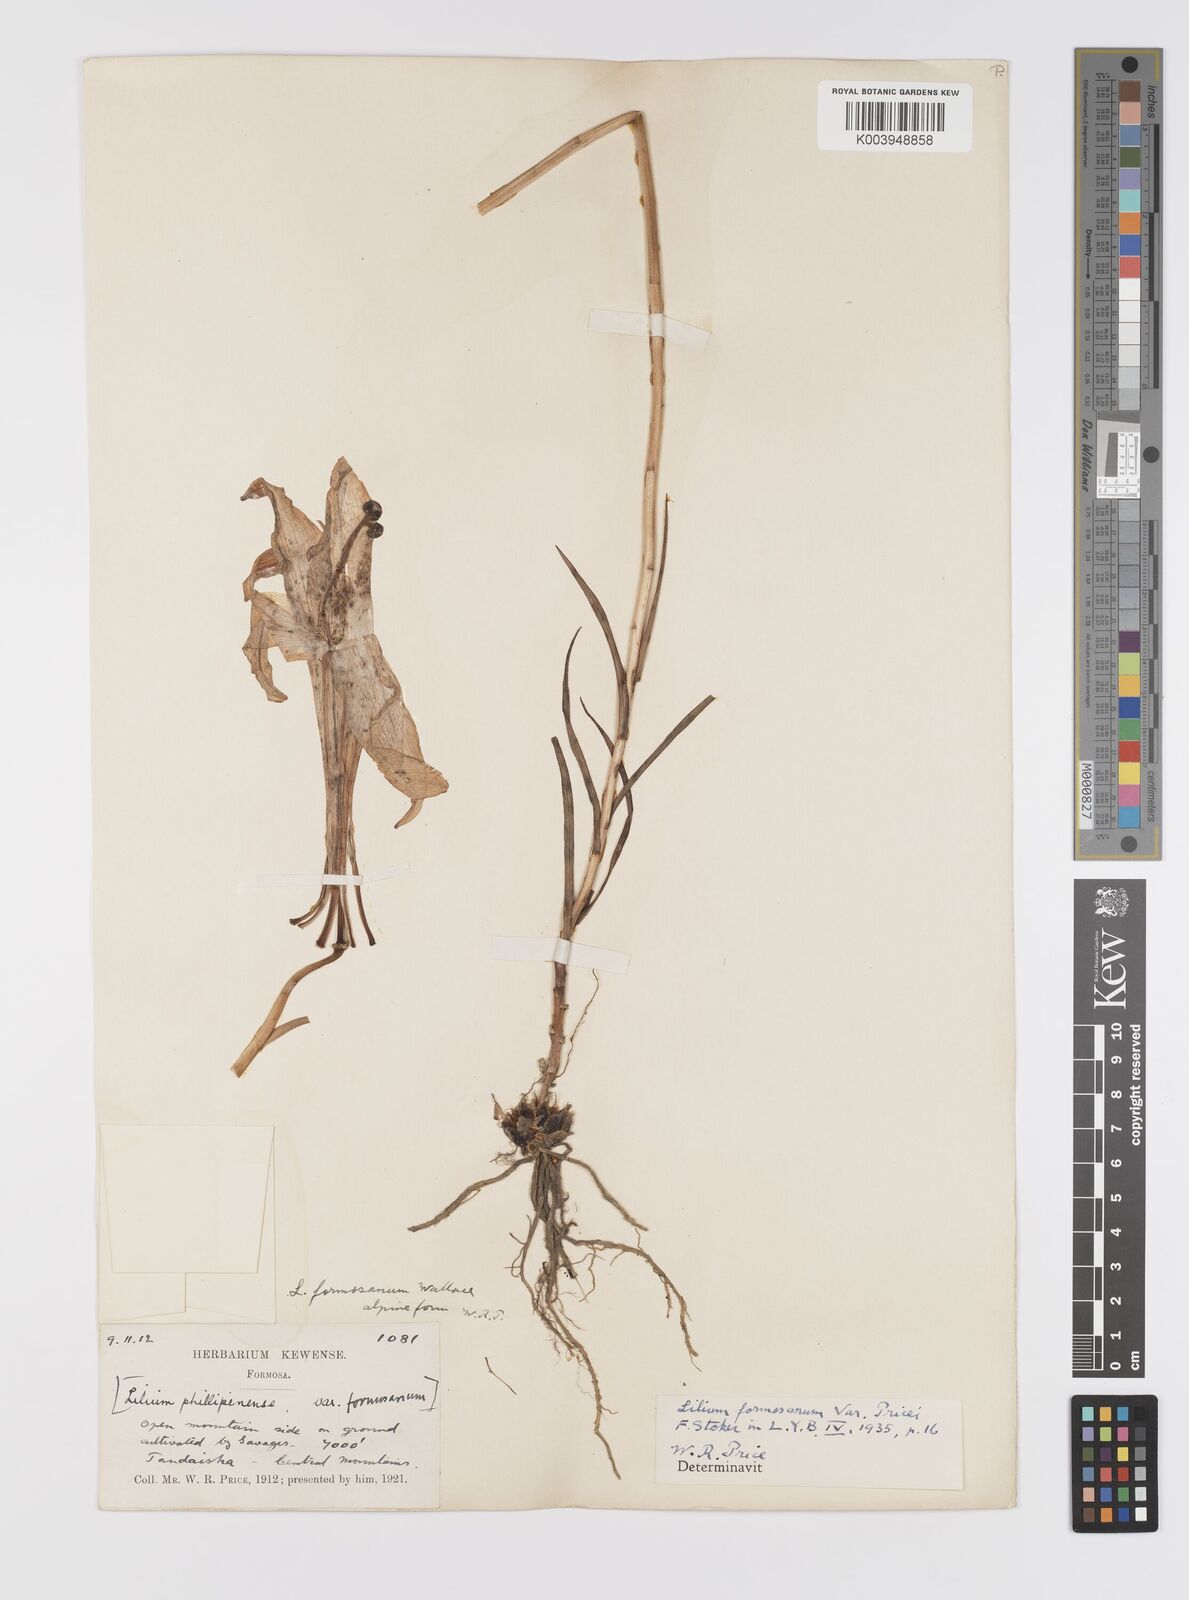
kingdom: Plantae
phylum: Tracheophyta
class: Liliopsida
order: Liliales
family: Liliaceae
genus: Lilium
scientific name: Lilium formosanum
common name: Formosa lily
